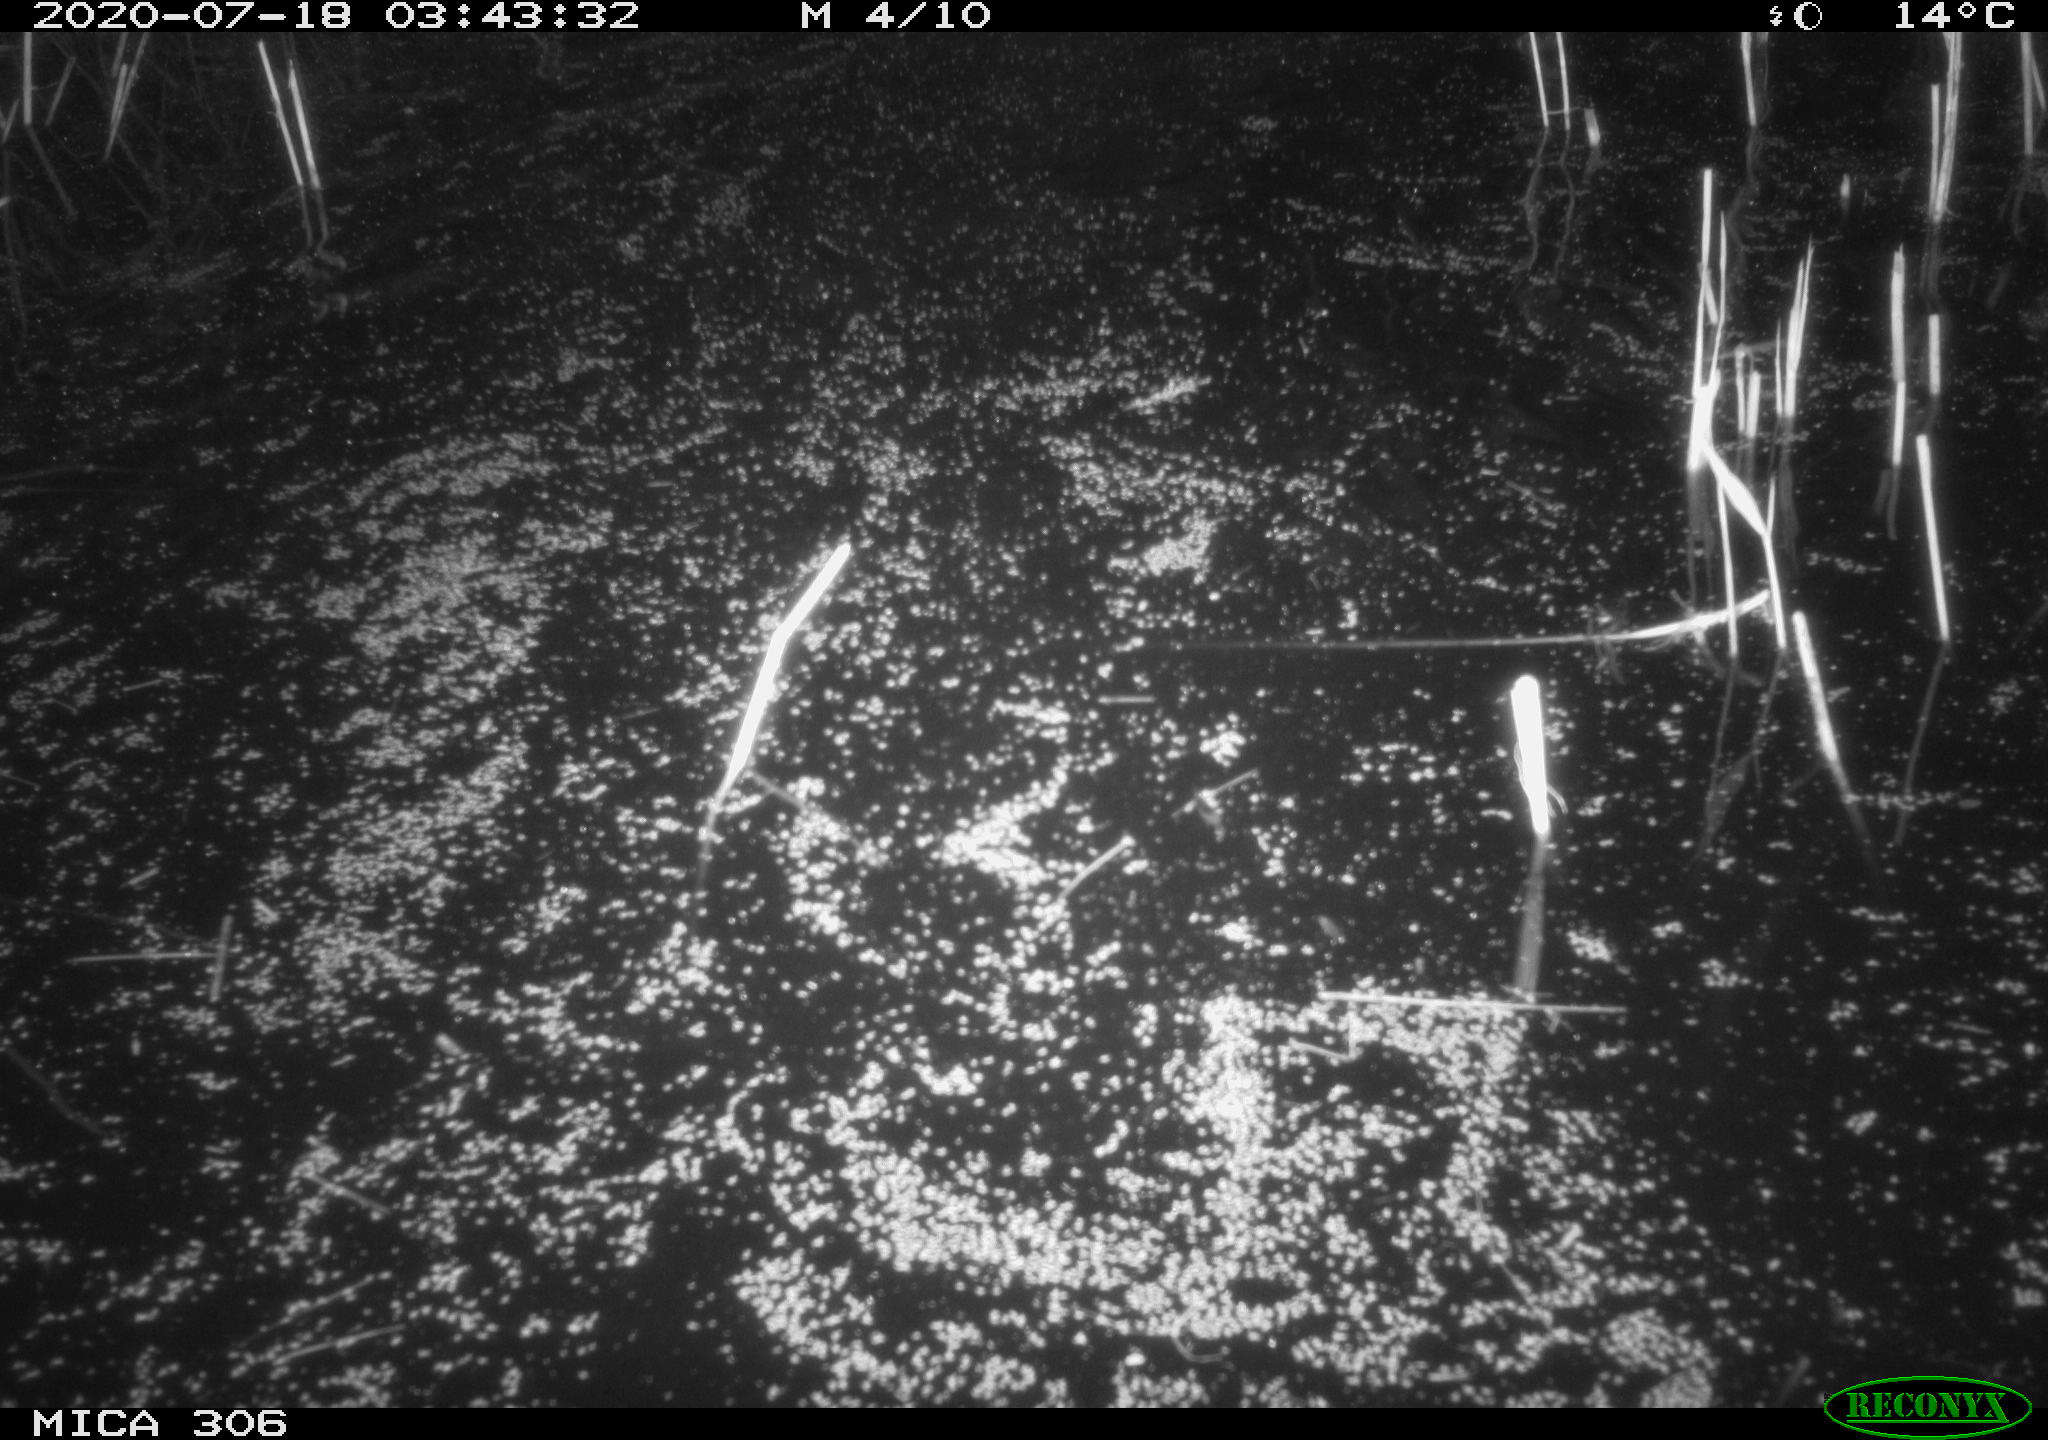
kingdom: Animalia
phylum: Chordata
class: Mammalia
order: Rodentia
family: Cricetidae
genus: Ondatra
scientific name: Ondatra zibethicus
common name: Muskrat
